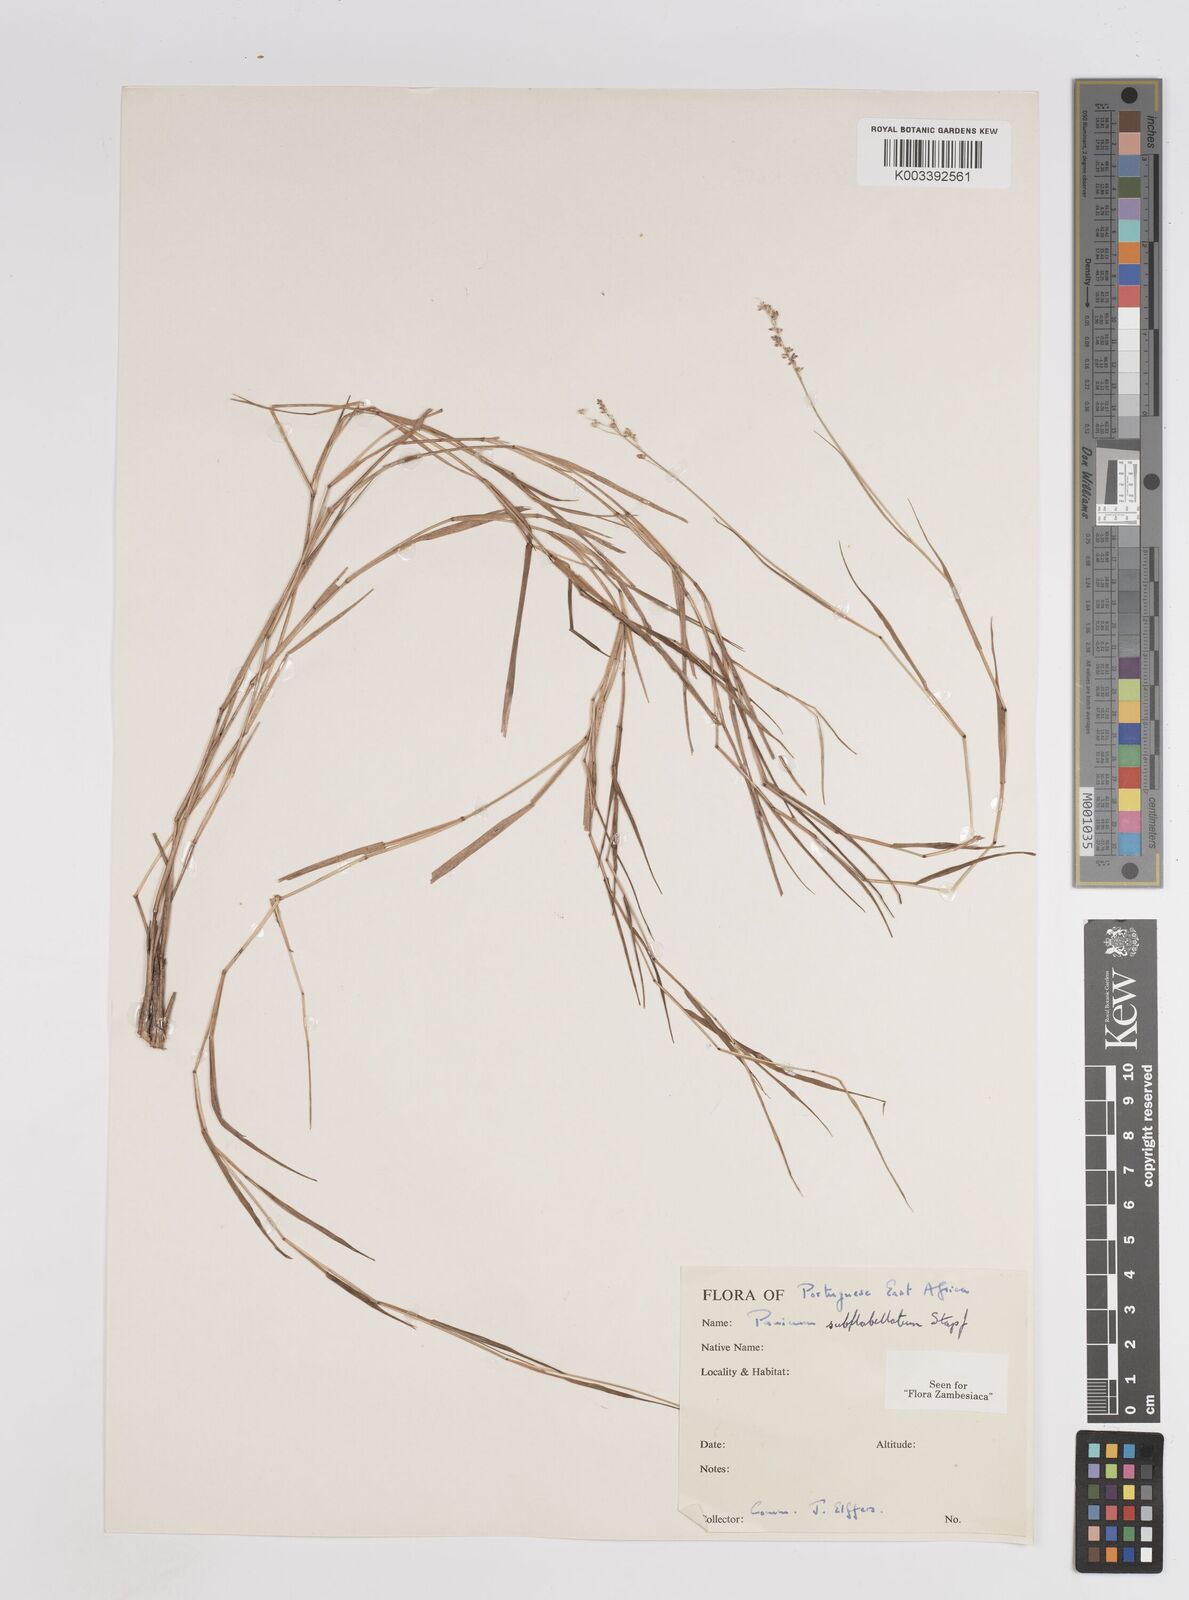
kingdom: Plantae
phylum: Tracheophyta
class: Liliopsida
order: Poales
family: Poaceae
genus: Panicum
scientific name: Panicum subflabellatum
